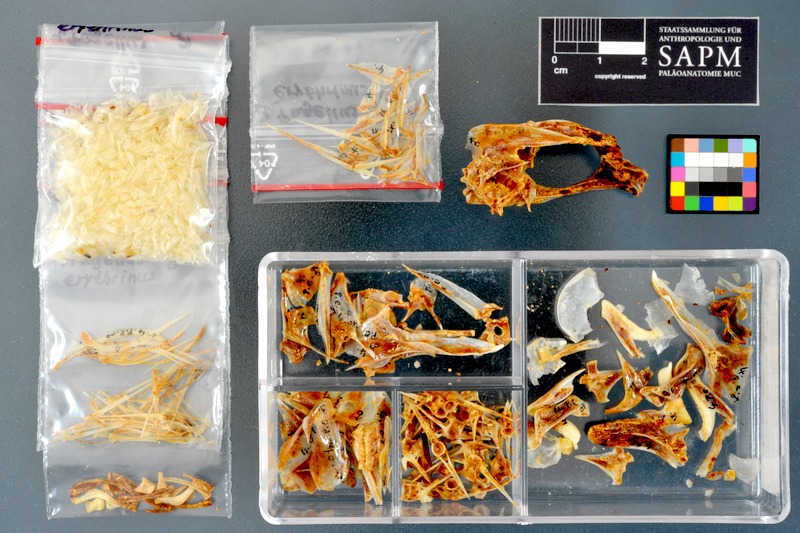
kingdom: Animalia
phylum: Chordata
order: Perciformes
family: Sparidae
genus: Pagellus
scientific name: Pagellus erythrinus
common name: Pandora
